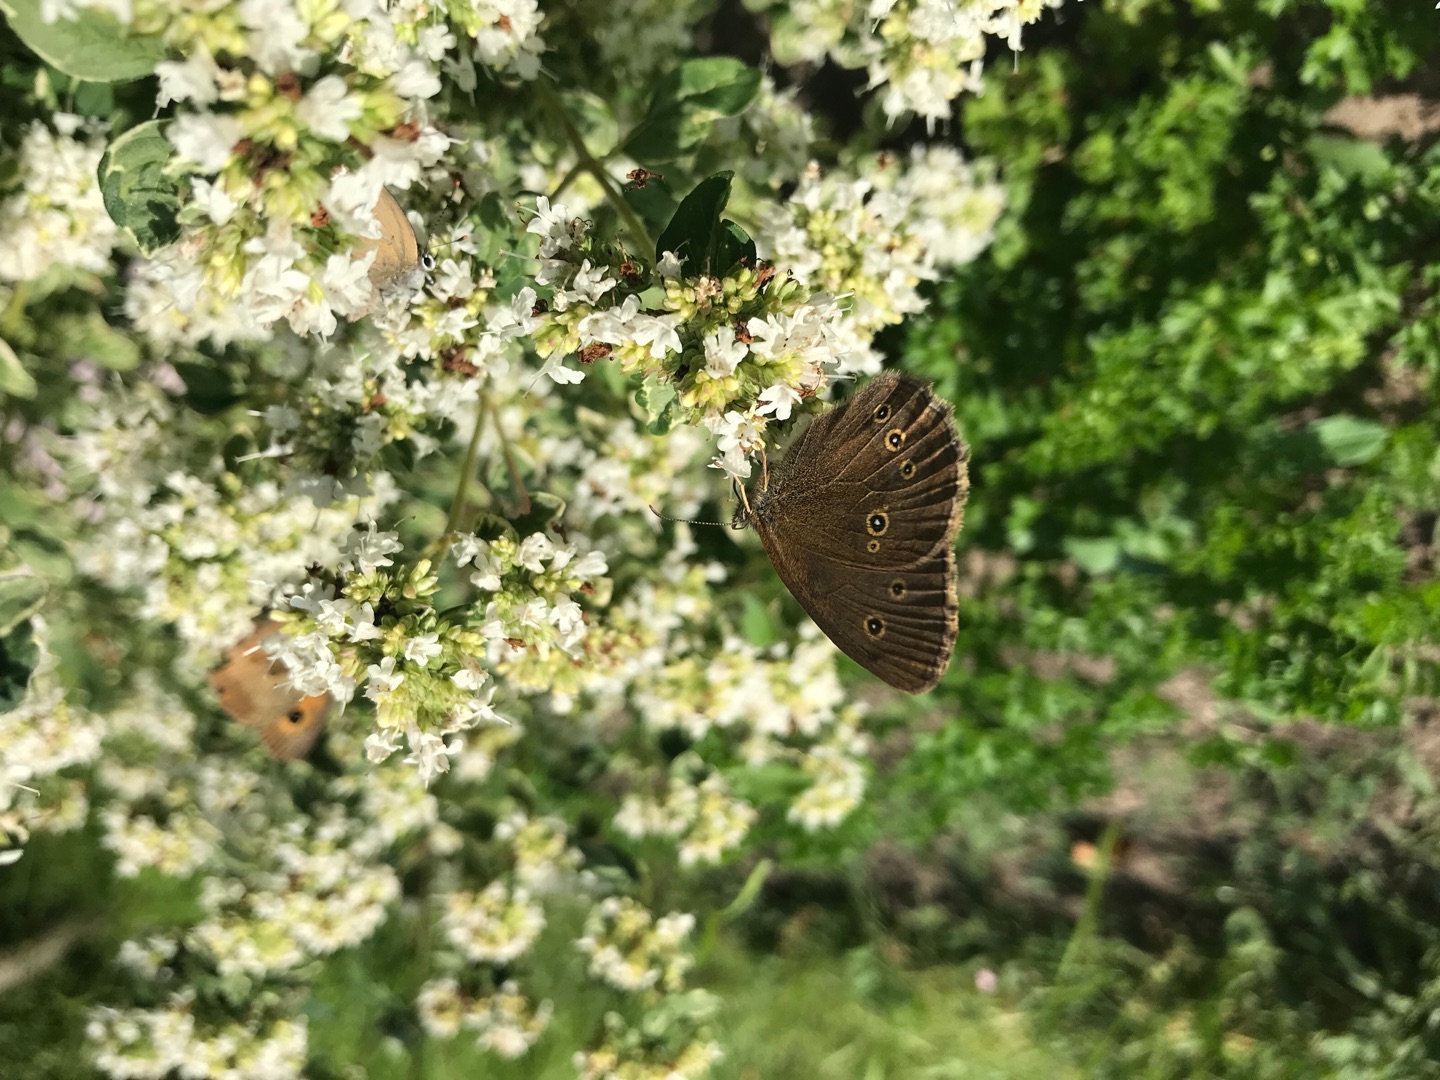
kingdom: Animalia
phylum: Arthropoda
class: Insecta
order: Lepidoptera
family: Nymphalidae
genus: Aphantopus
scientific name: Aphantopus hyperantus
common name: Engrandøje
